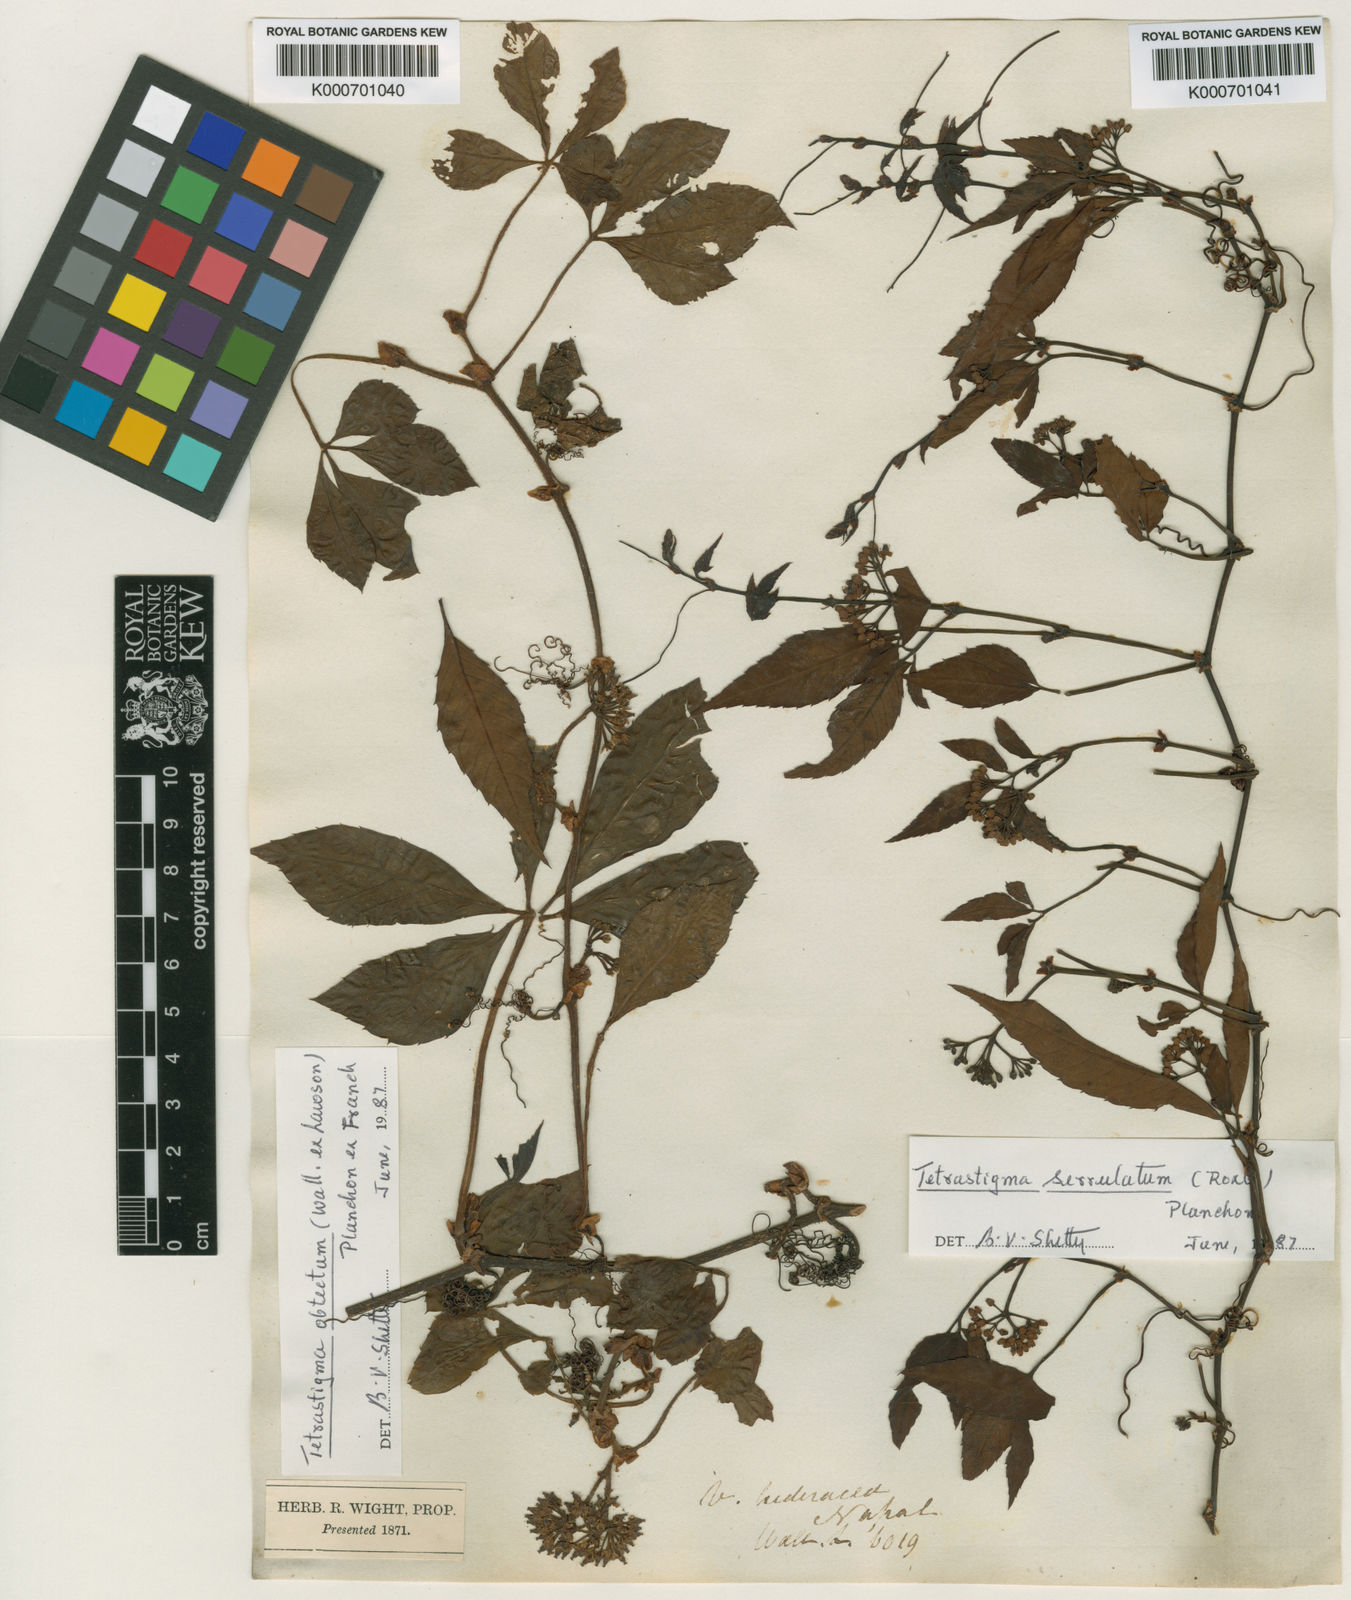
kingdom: Plantae
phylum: Tracheophyta
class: Magnoliopsida
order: Vitales
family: Vitaceae
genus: Tetrastigma
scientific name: Tetrastigma serrulatum
